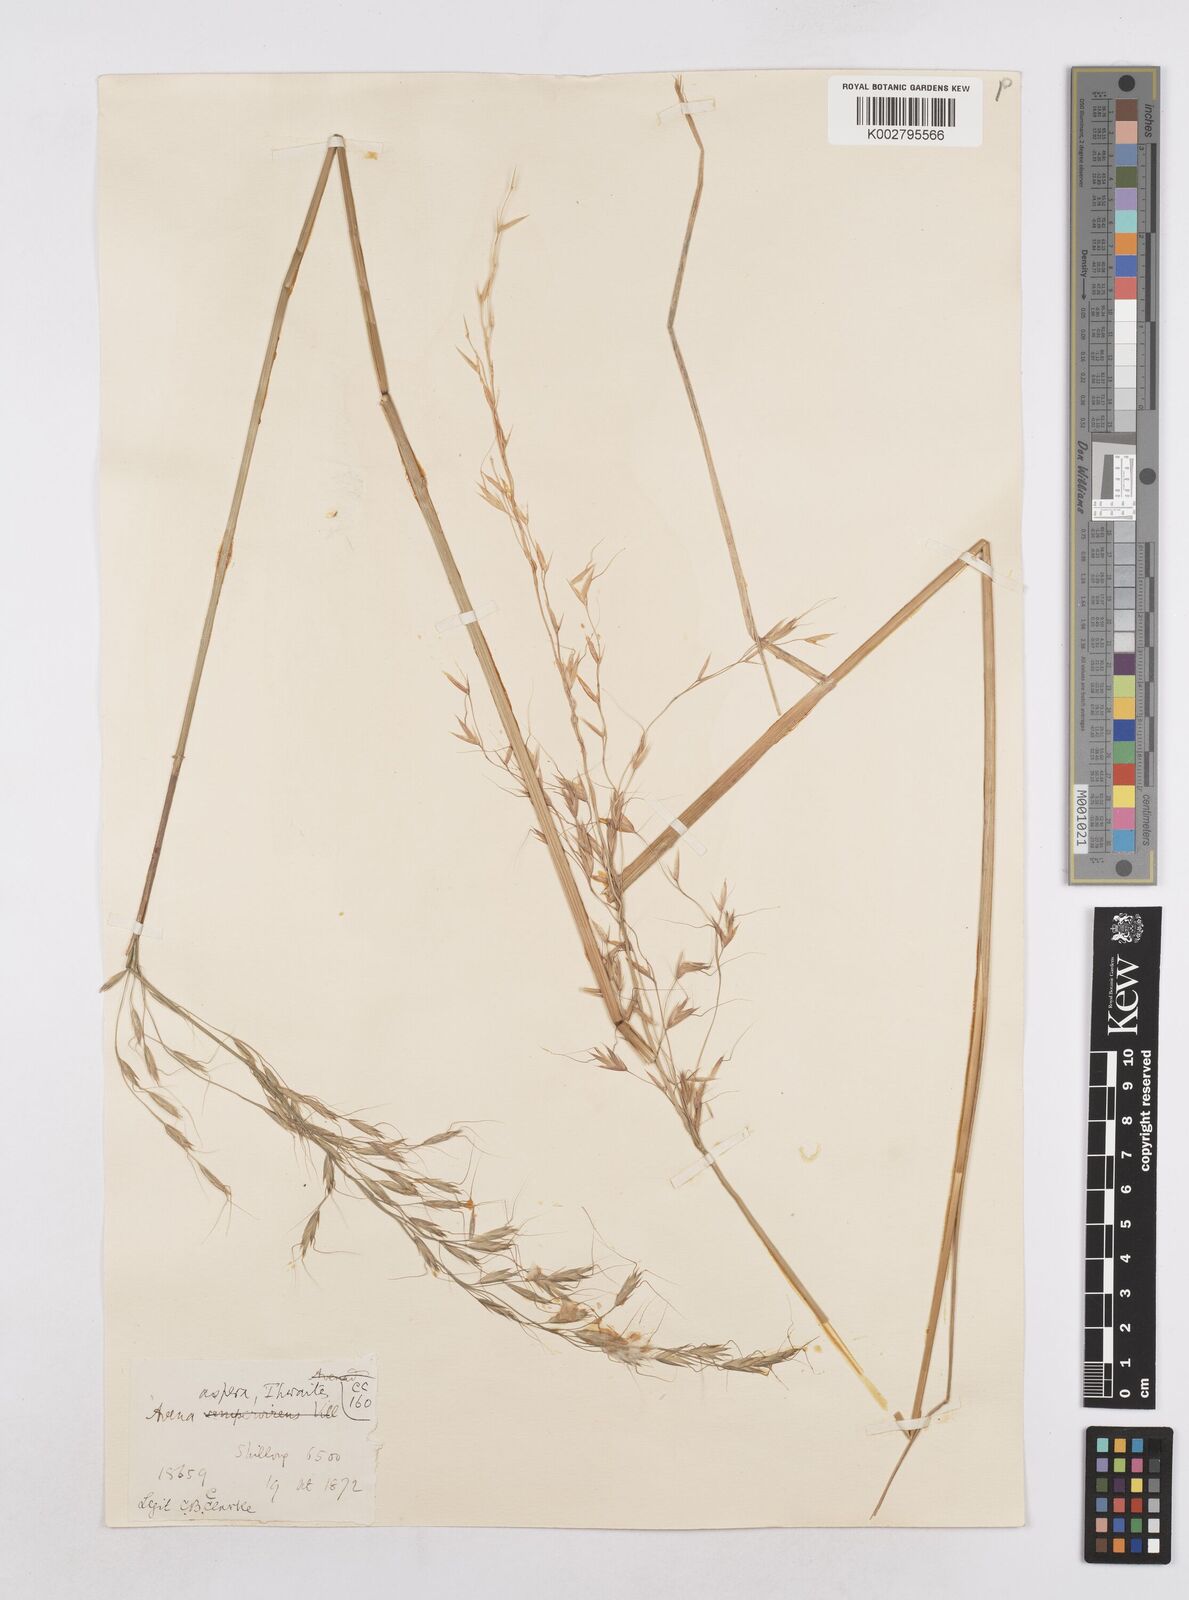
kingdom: Plantae
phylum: Tracheophyta
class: Liliopsida
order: Poales
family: Poaceae
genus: Trisetopsis
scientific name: Trisetopsis junghuhnii
